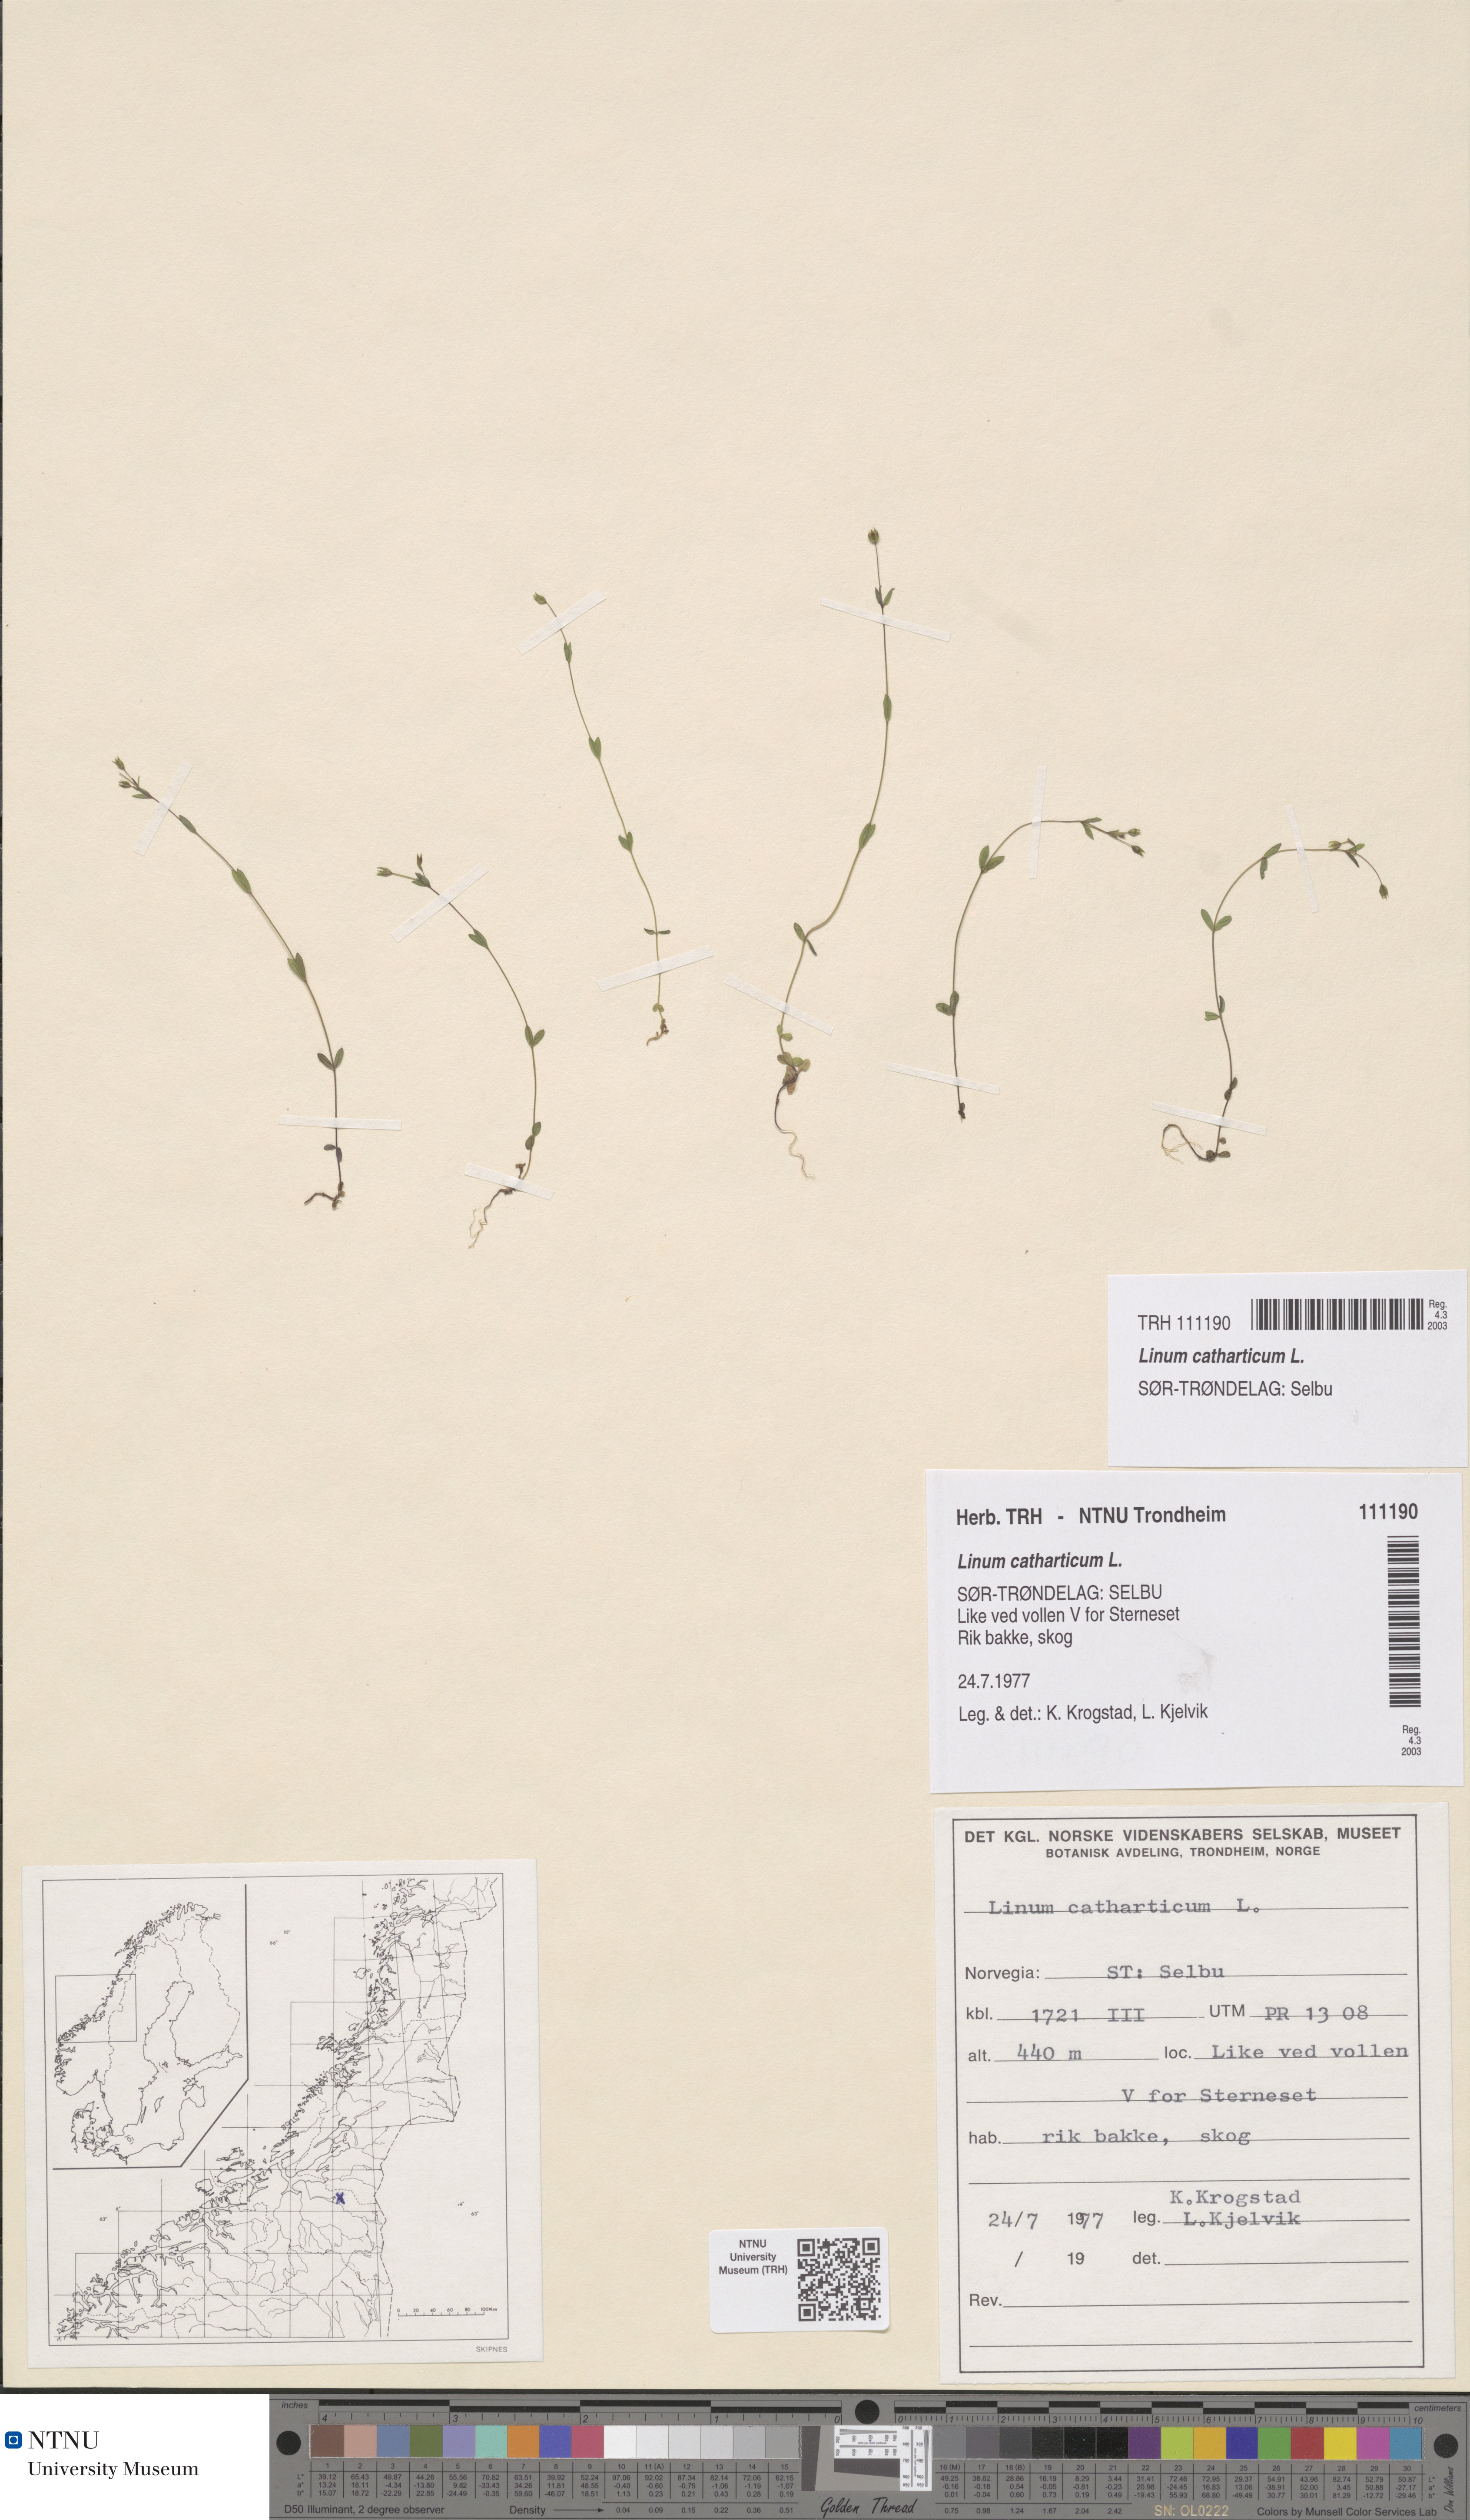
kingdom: Plantae
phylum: Tracheophyta
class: Magnoliopsida
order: Malpighiales
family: Linaceae
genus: Linum
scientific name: Linum catharticum
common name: Fairy flax
